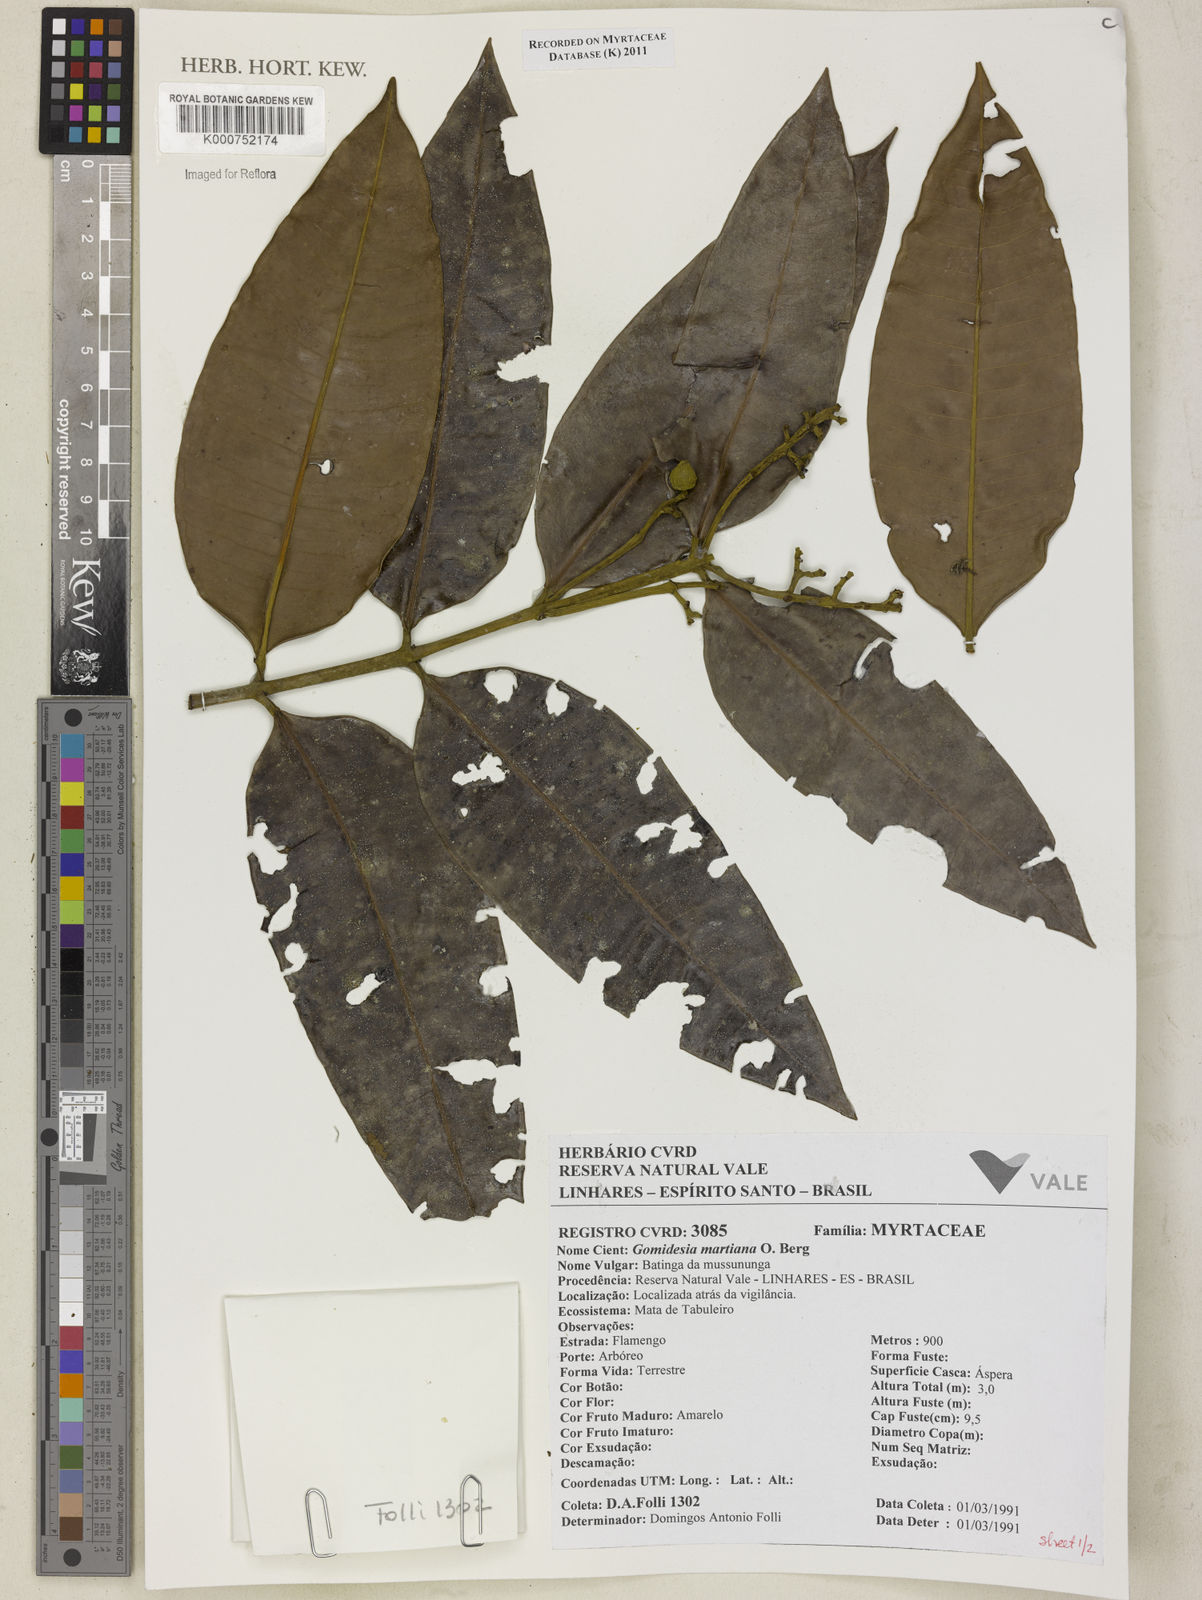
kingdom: Plantae
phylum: Tracheophyta
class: Magnoliopsida
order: Myrtales
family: Myrtaceae
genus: Myrcia
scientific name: Myrcia vittoriana
